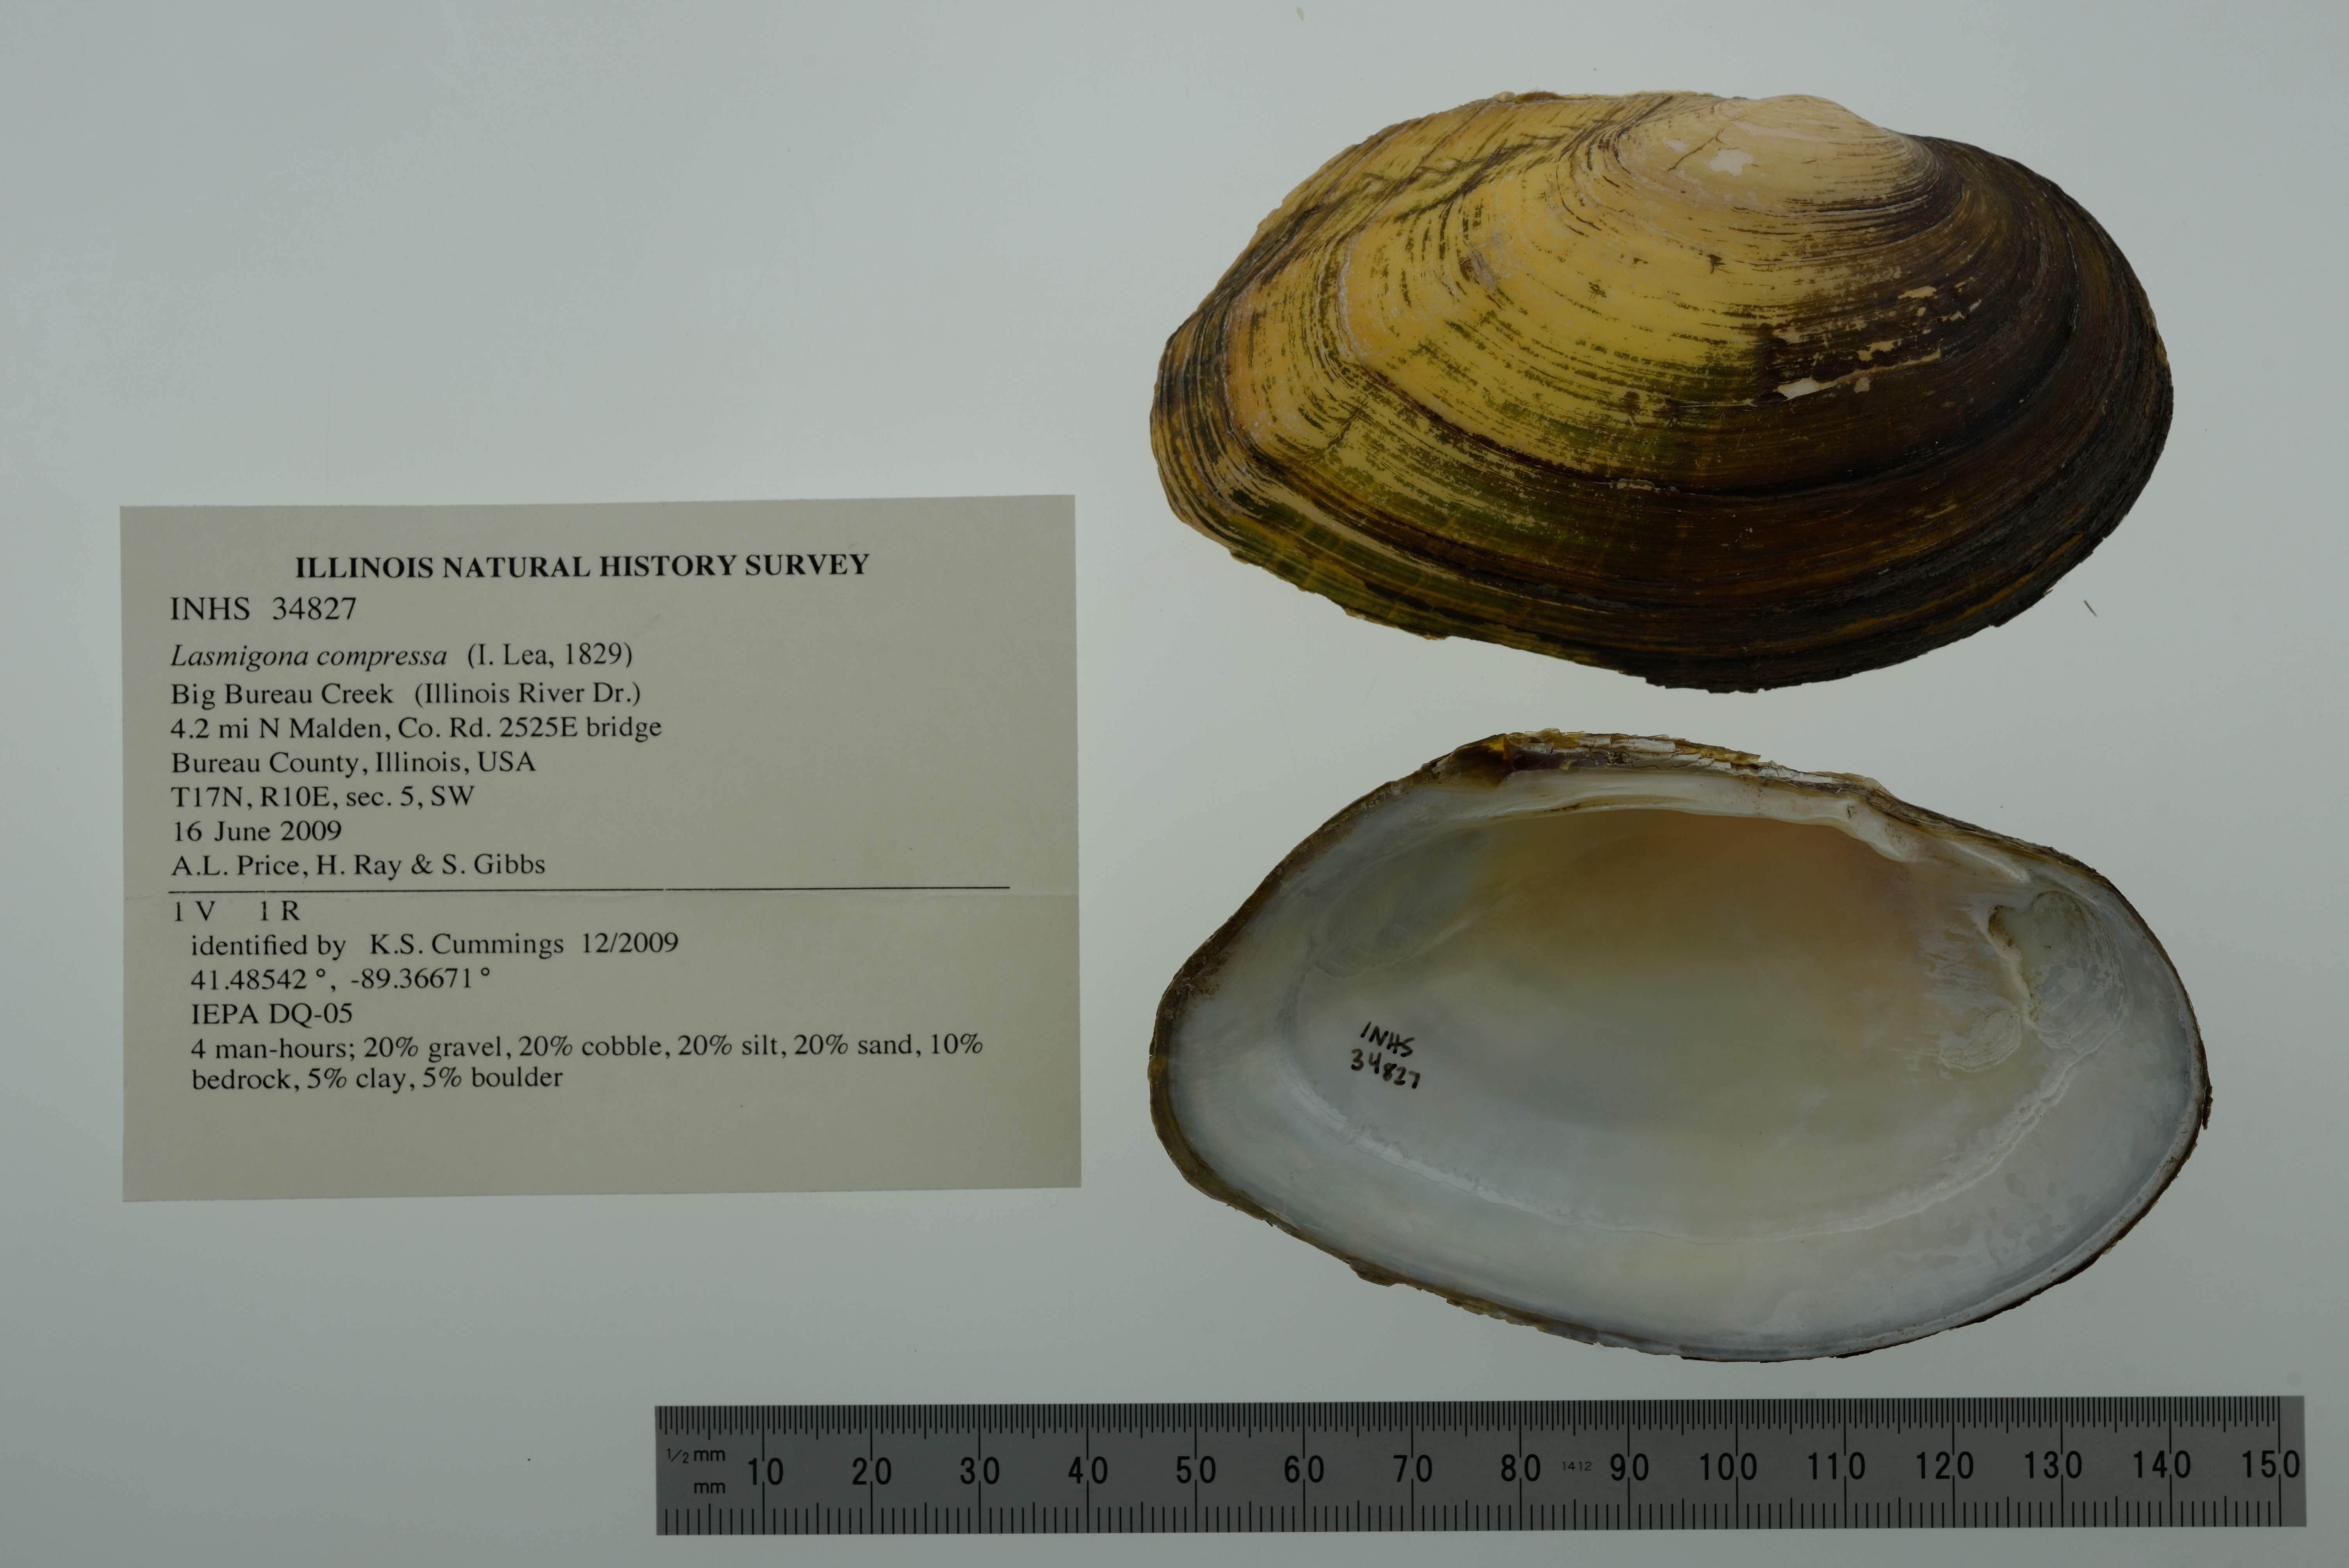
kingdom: Animalia
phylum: Mollusca
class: Bivalvia
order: Unionida
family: Unionidae
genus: Lasmigona
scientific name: Lasmigona compressa
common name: Creek heelsplitter
